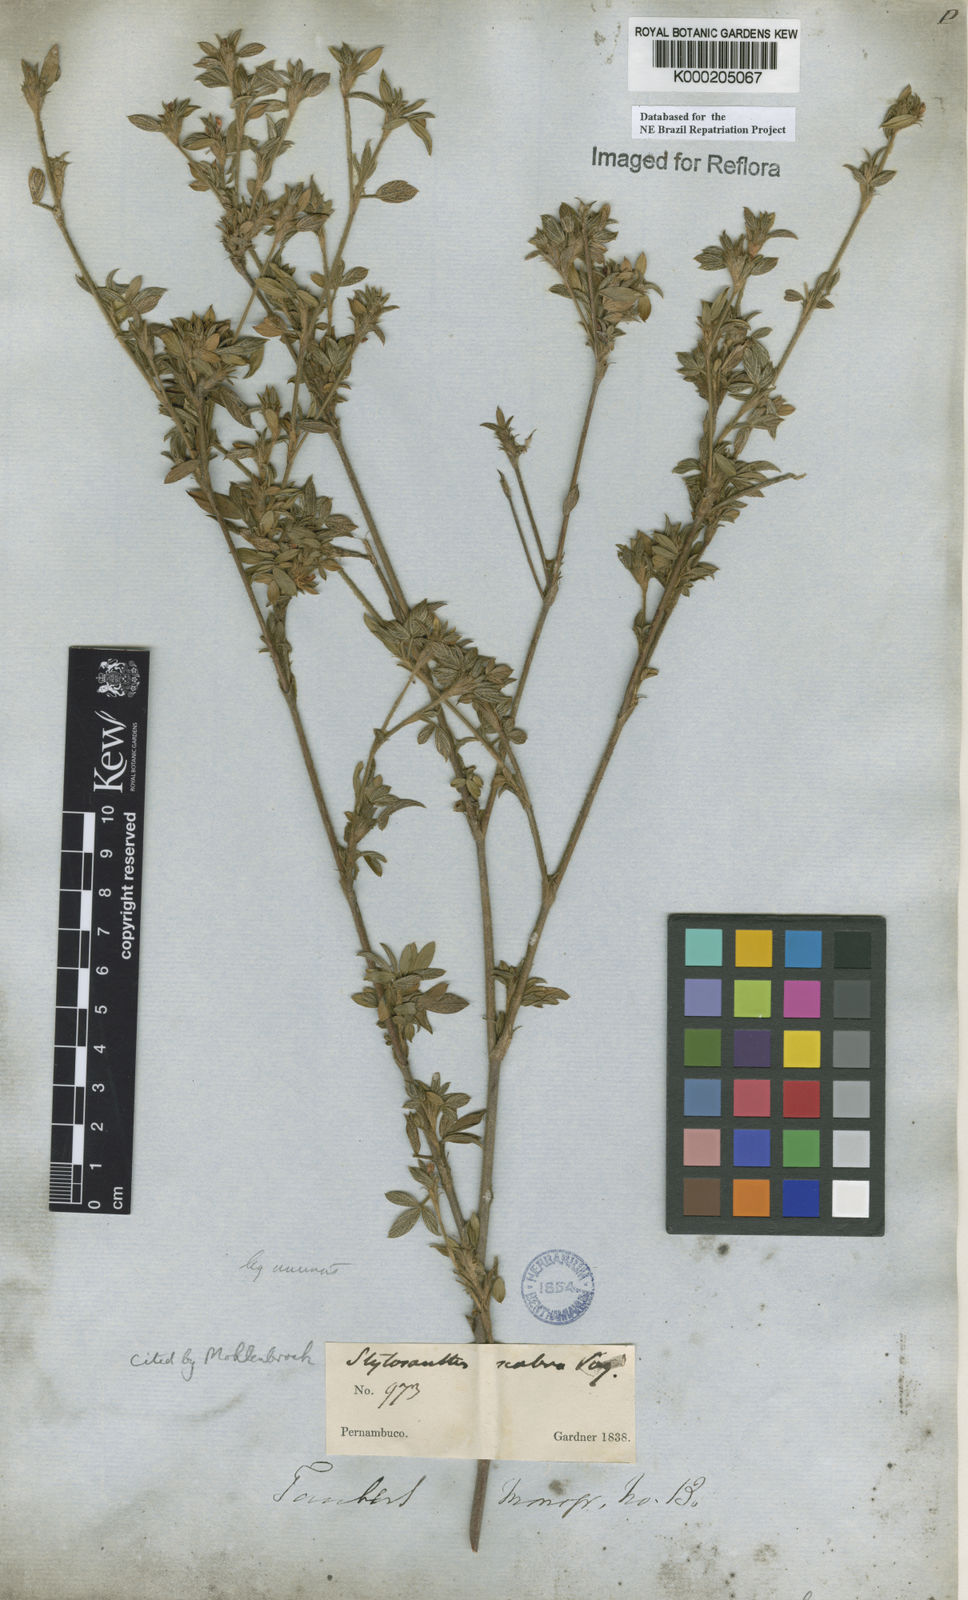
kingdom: Plantae
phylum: Tracheophyta
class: Magnoliopsida
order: Fabales
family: Fabaceae
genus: Stylosanthes
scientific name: Stylosanthes scabra
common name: Pencilflower
